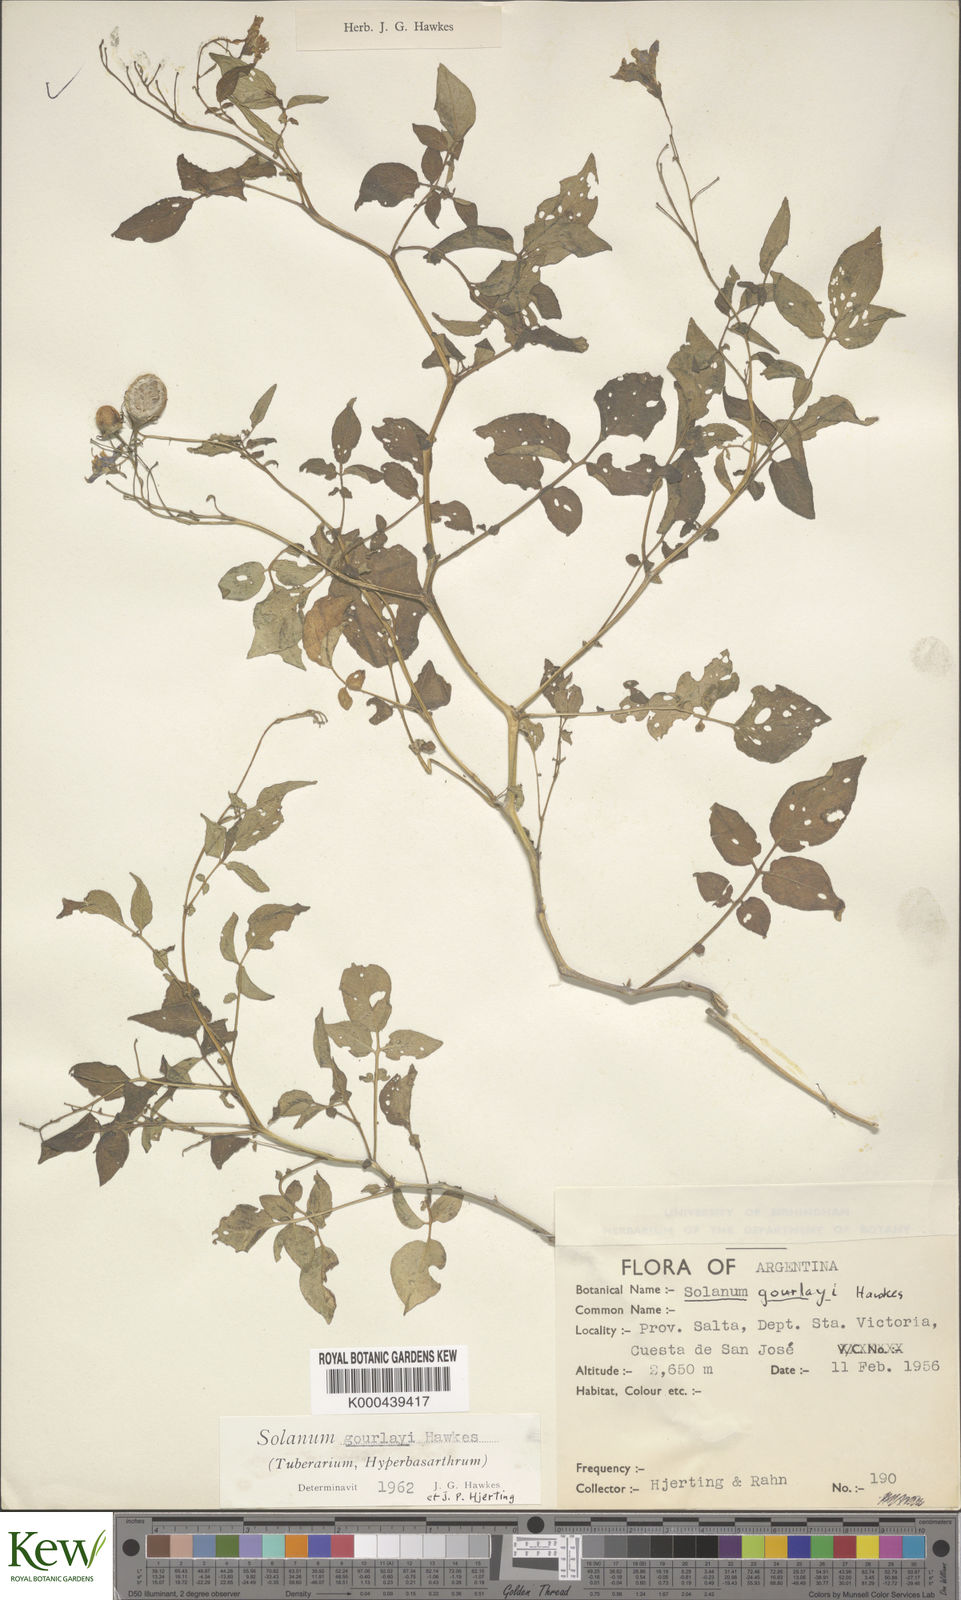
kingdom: Plantae
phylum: Tracheophyta
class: Magnoliopsida
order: Solanales
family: Solanaceae
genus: Solanum
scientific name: Solanum brevicaule
